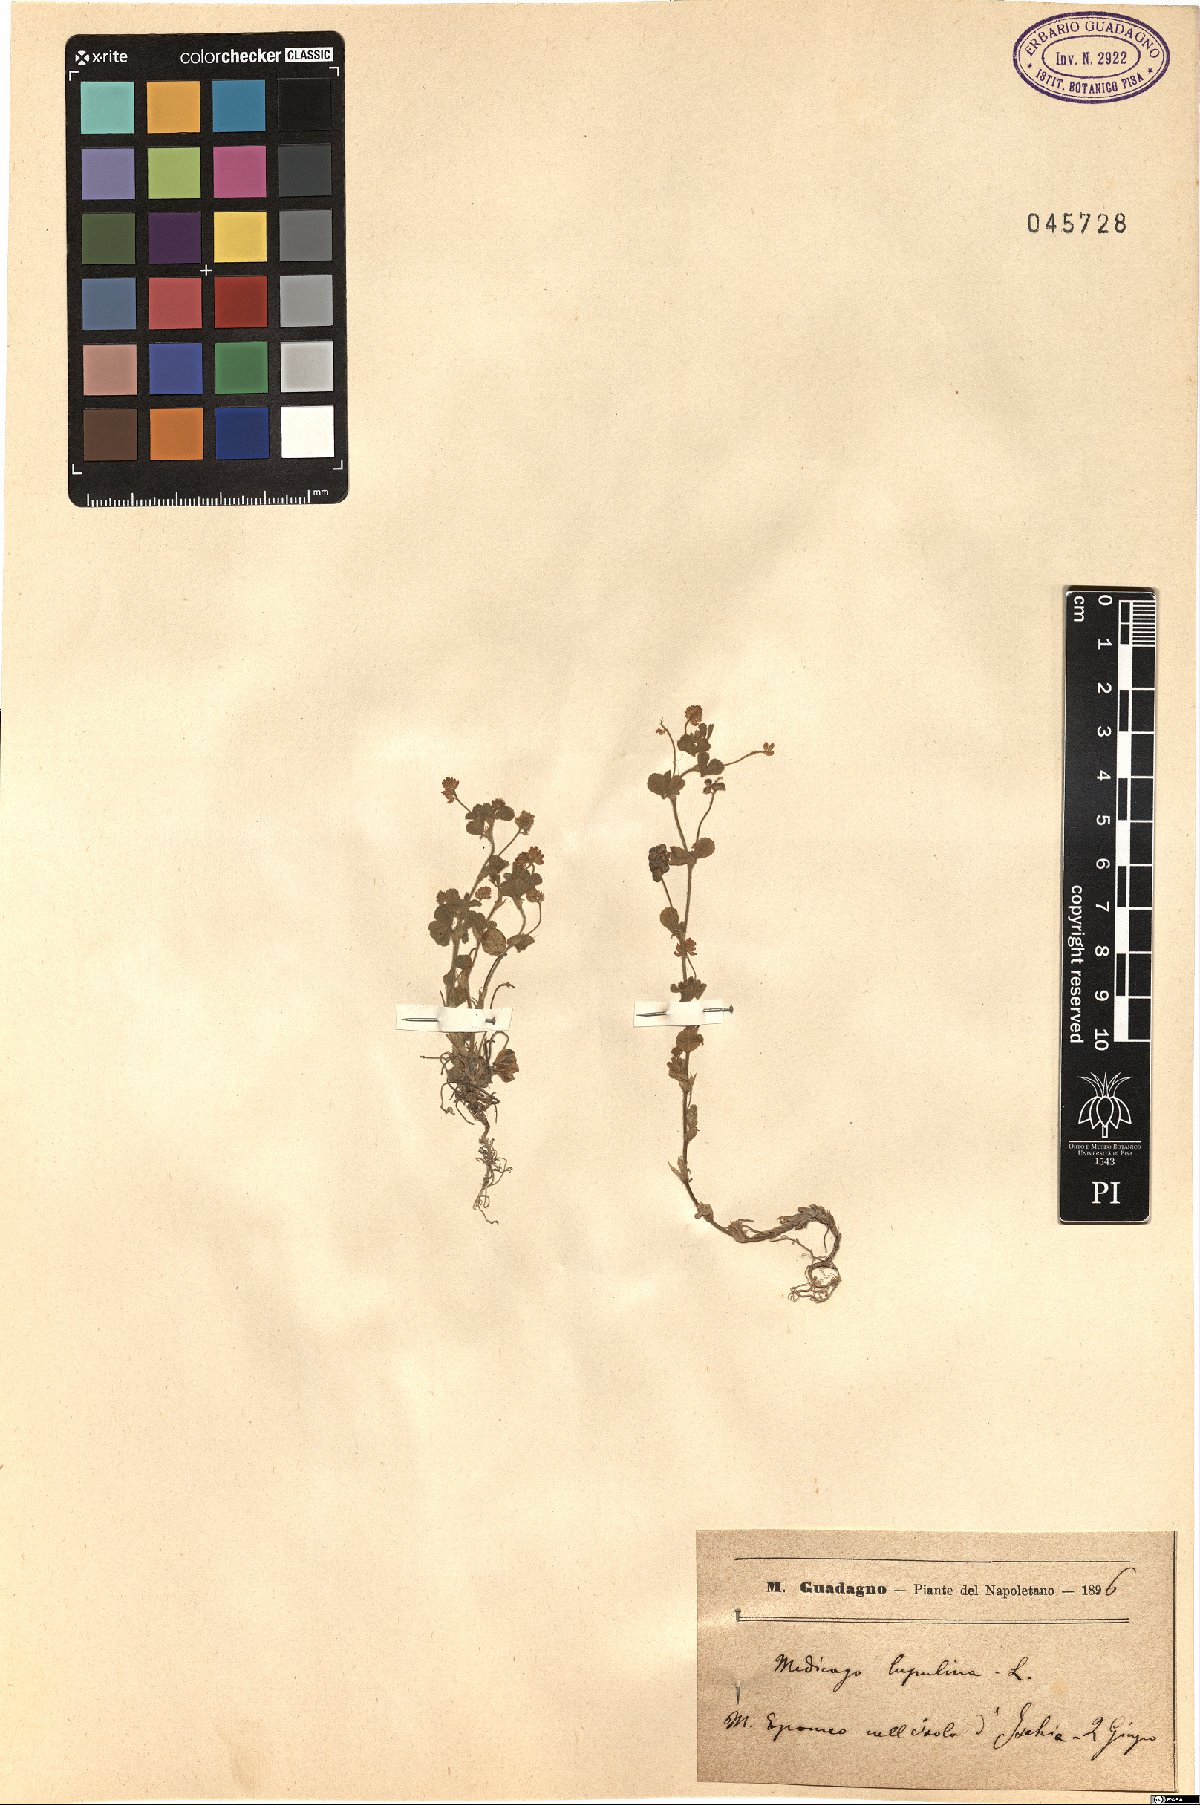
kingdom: Plantae
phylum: Tracheophyta
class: Magnoliopsida
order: Fabales
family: Fabaceae
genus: Medicago
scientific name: Medicago lupulina
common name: Black medick
